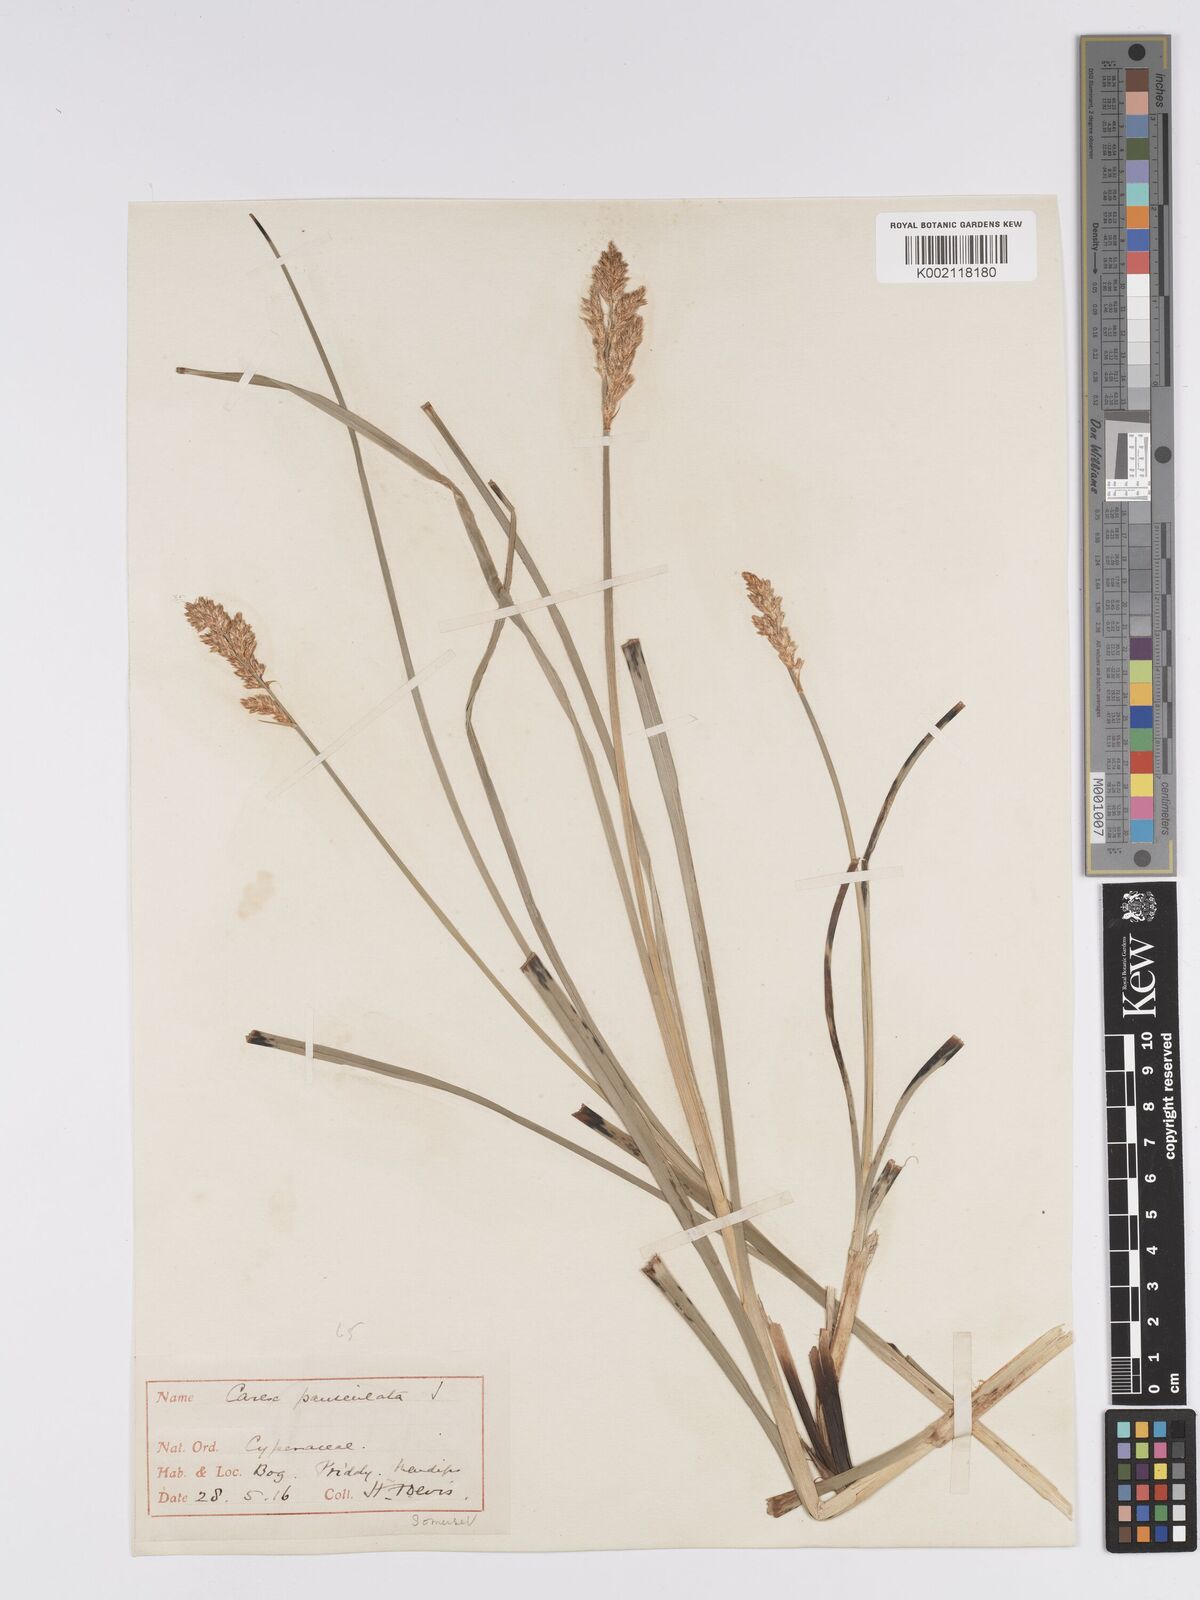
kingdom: Plantae
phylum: Tracheophyta
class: Liliopsida
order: Poales
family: Cyperaceae
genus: Carex
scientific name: Carex paniculata
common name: Greater tussock-sedge
